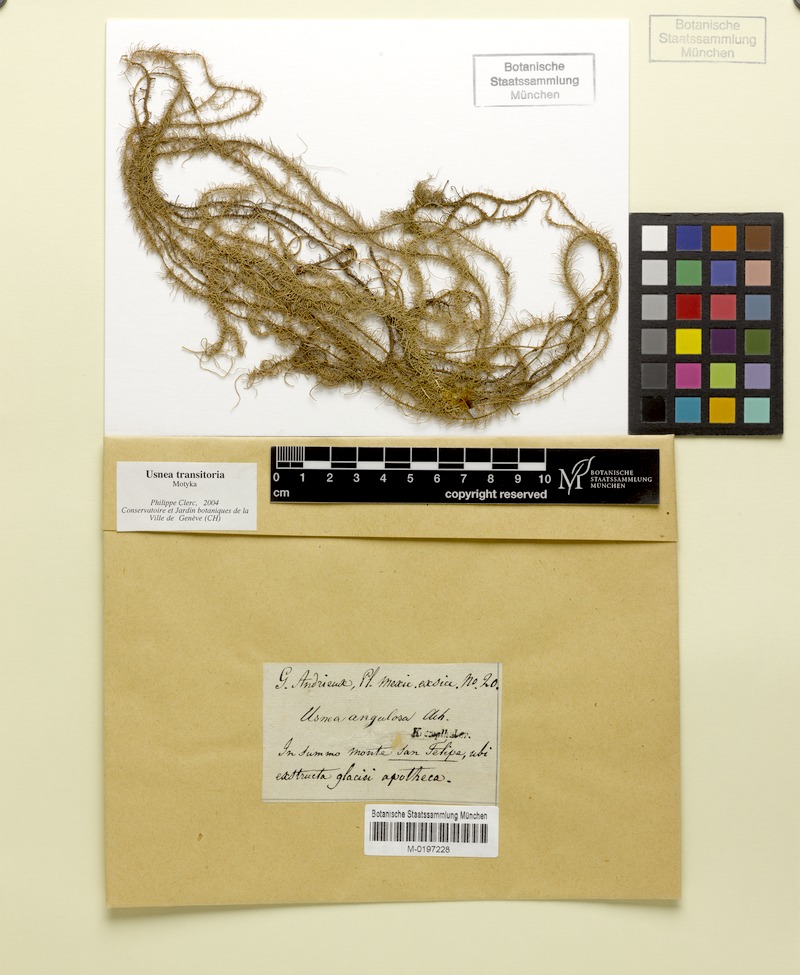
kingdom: Fungi
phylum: Ascomycota
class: Lecanoromycetes
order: Lecanorales
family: Parmeliaceae
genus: Usnea
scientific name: Usnea transitoria
